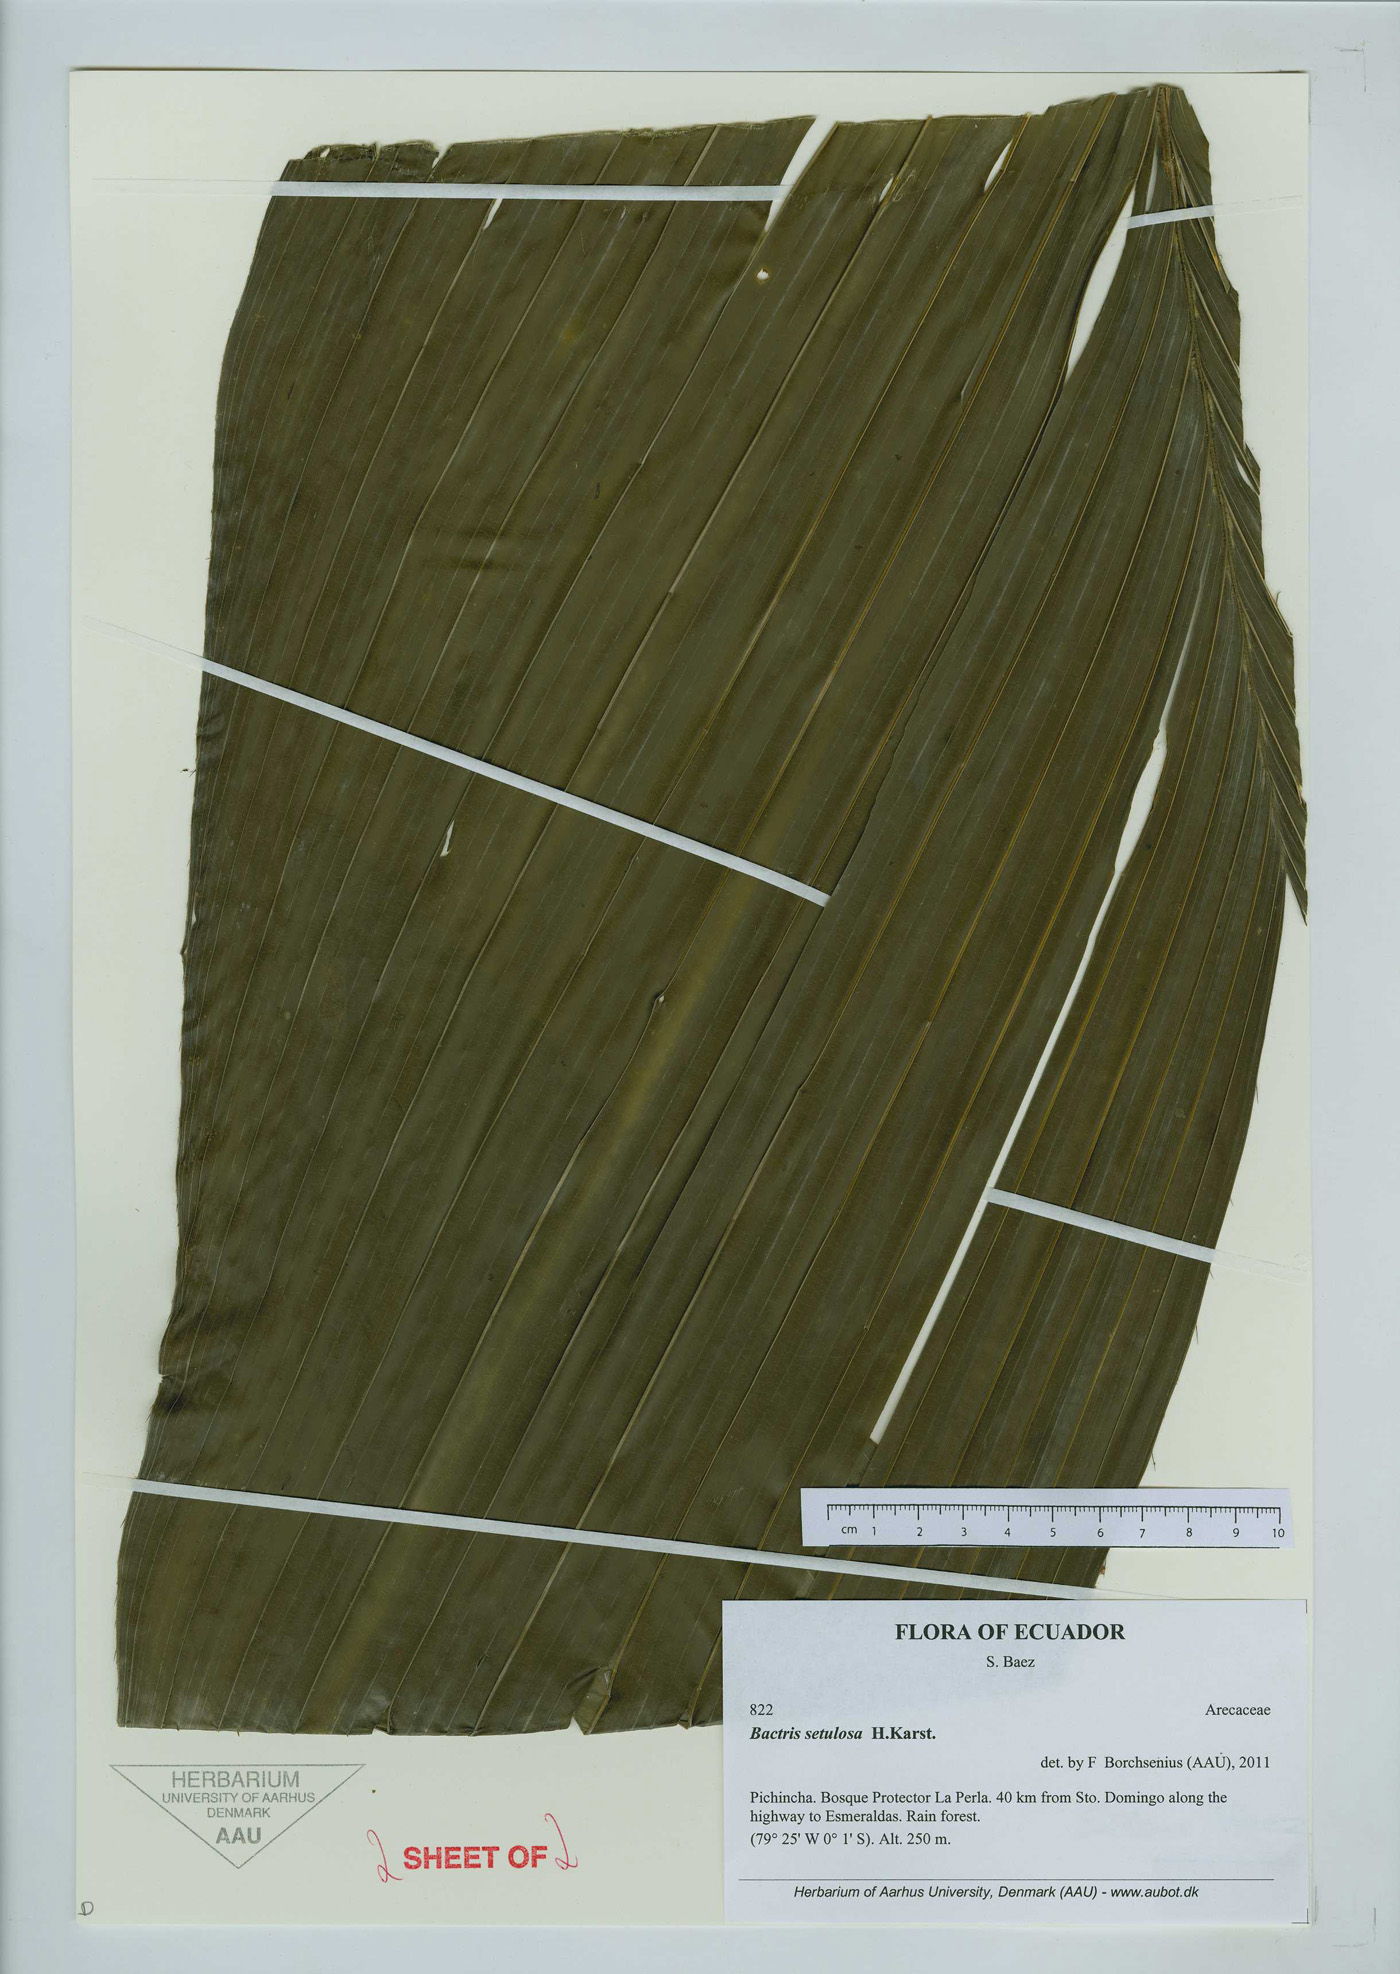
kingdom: Plantae
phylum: Tracheophyta
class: Liliopsida
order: Arecales
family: Arecaceae
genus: Bactris
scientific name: Bactris setulosa
